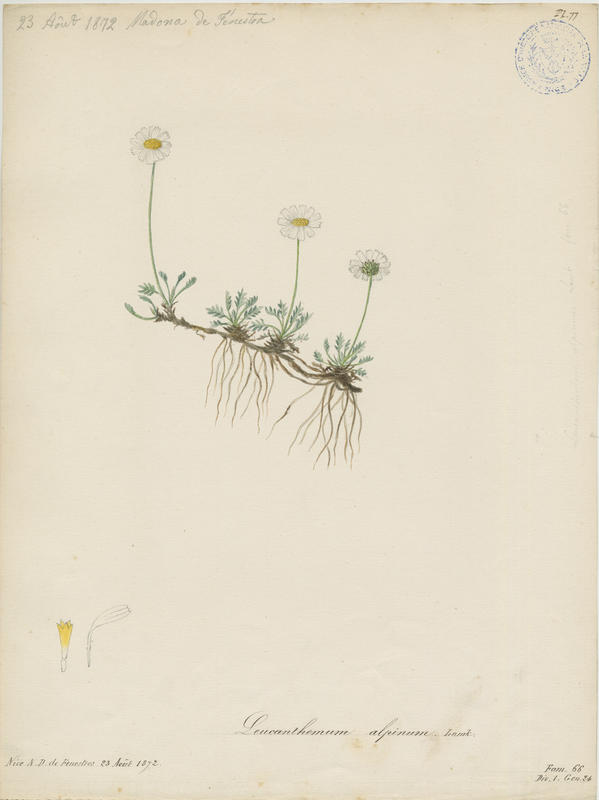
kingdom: Plantae
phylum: Tracheophyta
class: Magnoliopsida
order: Asterales
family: Asteraceae
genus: Leucanthemopsis
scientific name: Leucanthemopsis alpina
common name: Alpine moon daisy
